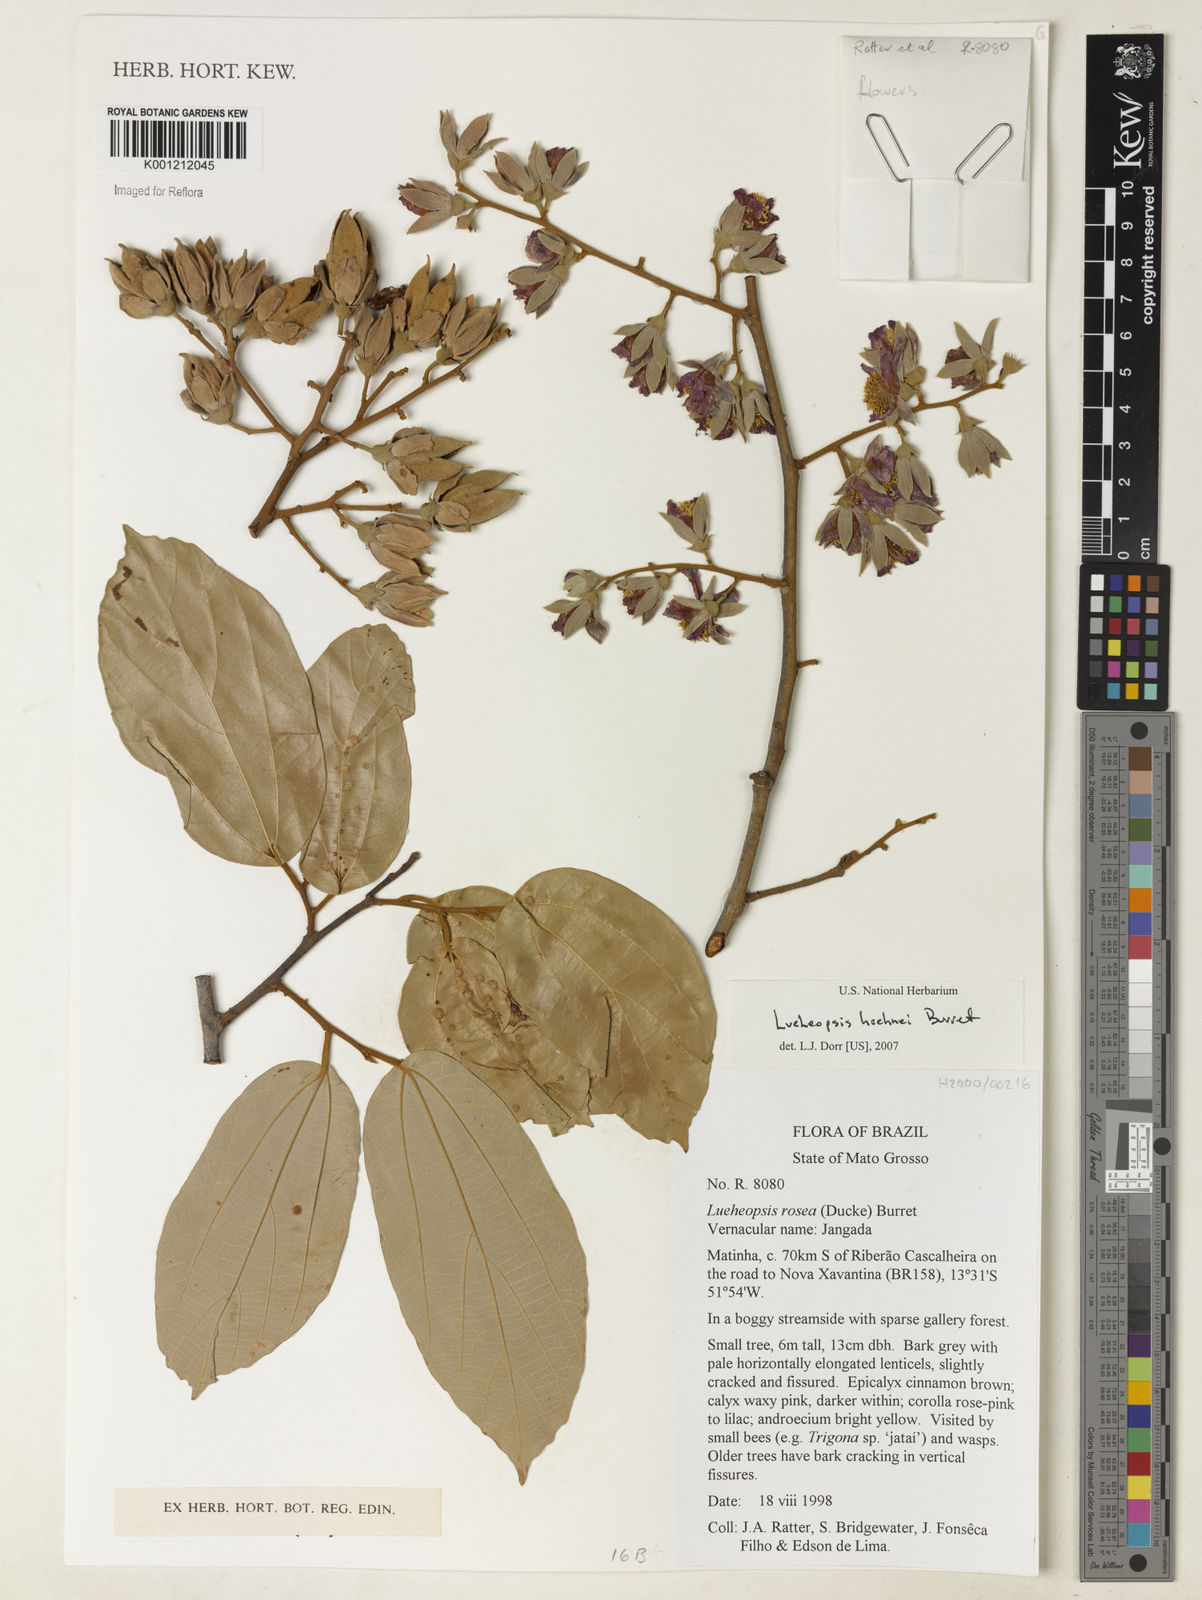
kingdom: Plantae
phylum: Tracheophyta
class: Magnoliopsida
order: Malvales
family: Malvaceae
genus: Lueheopsis
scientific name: Lueheopsis hoehnei
